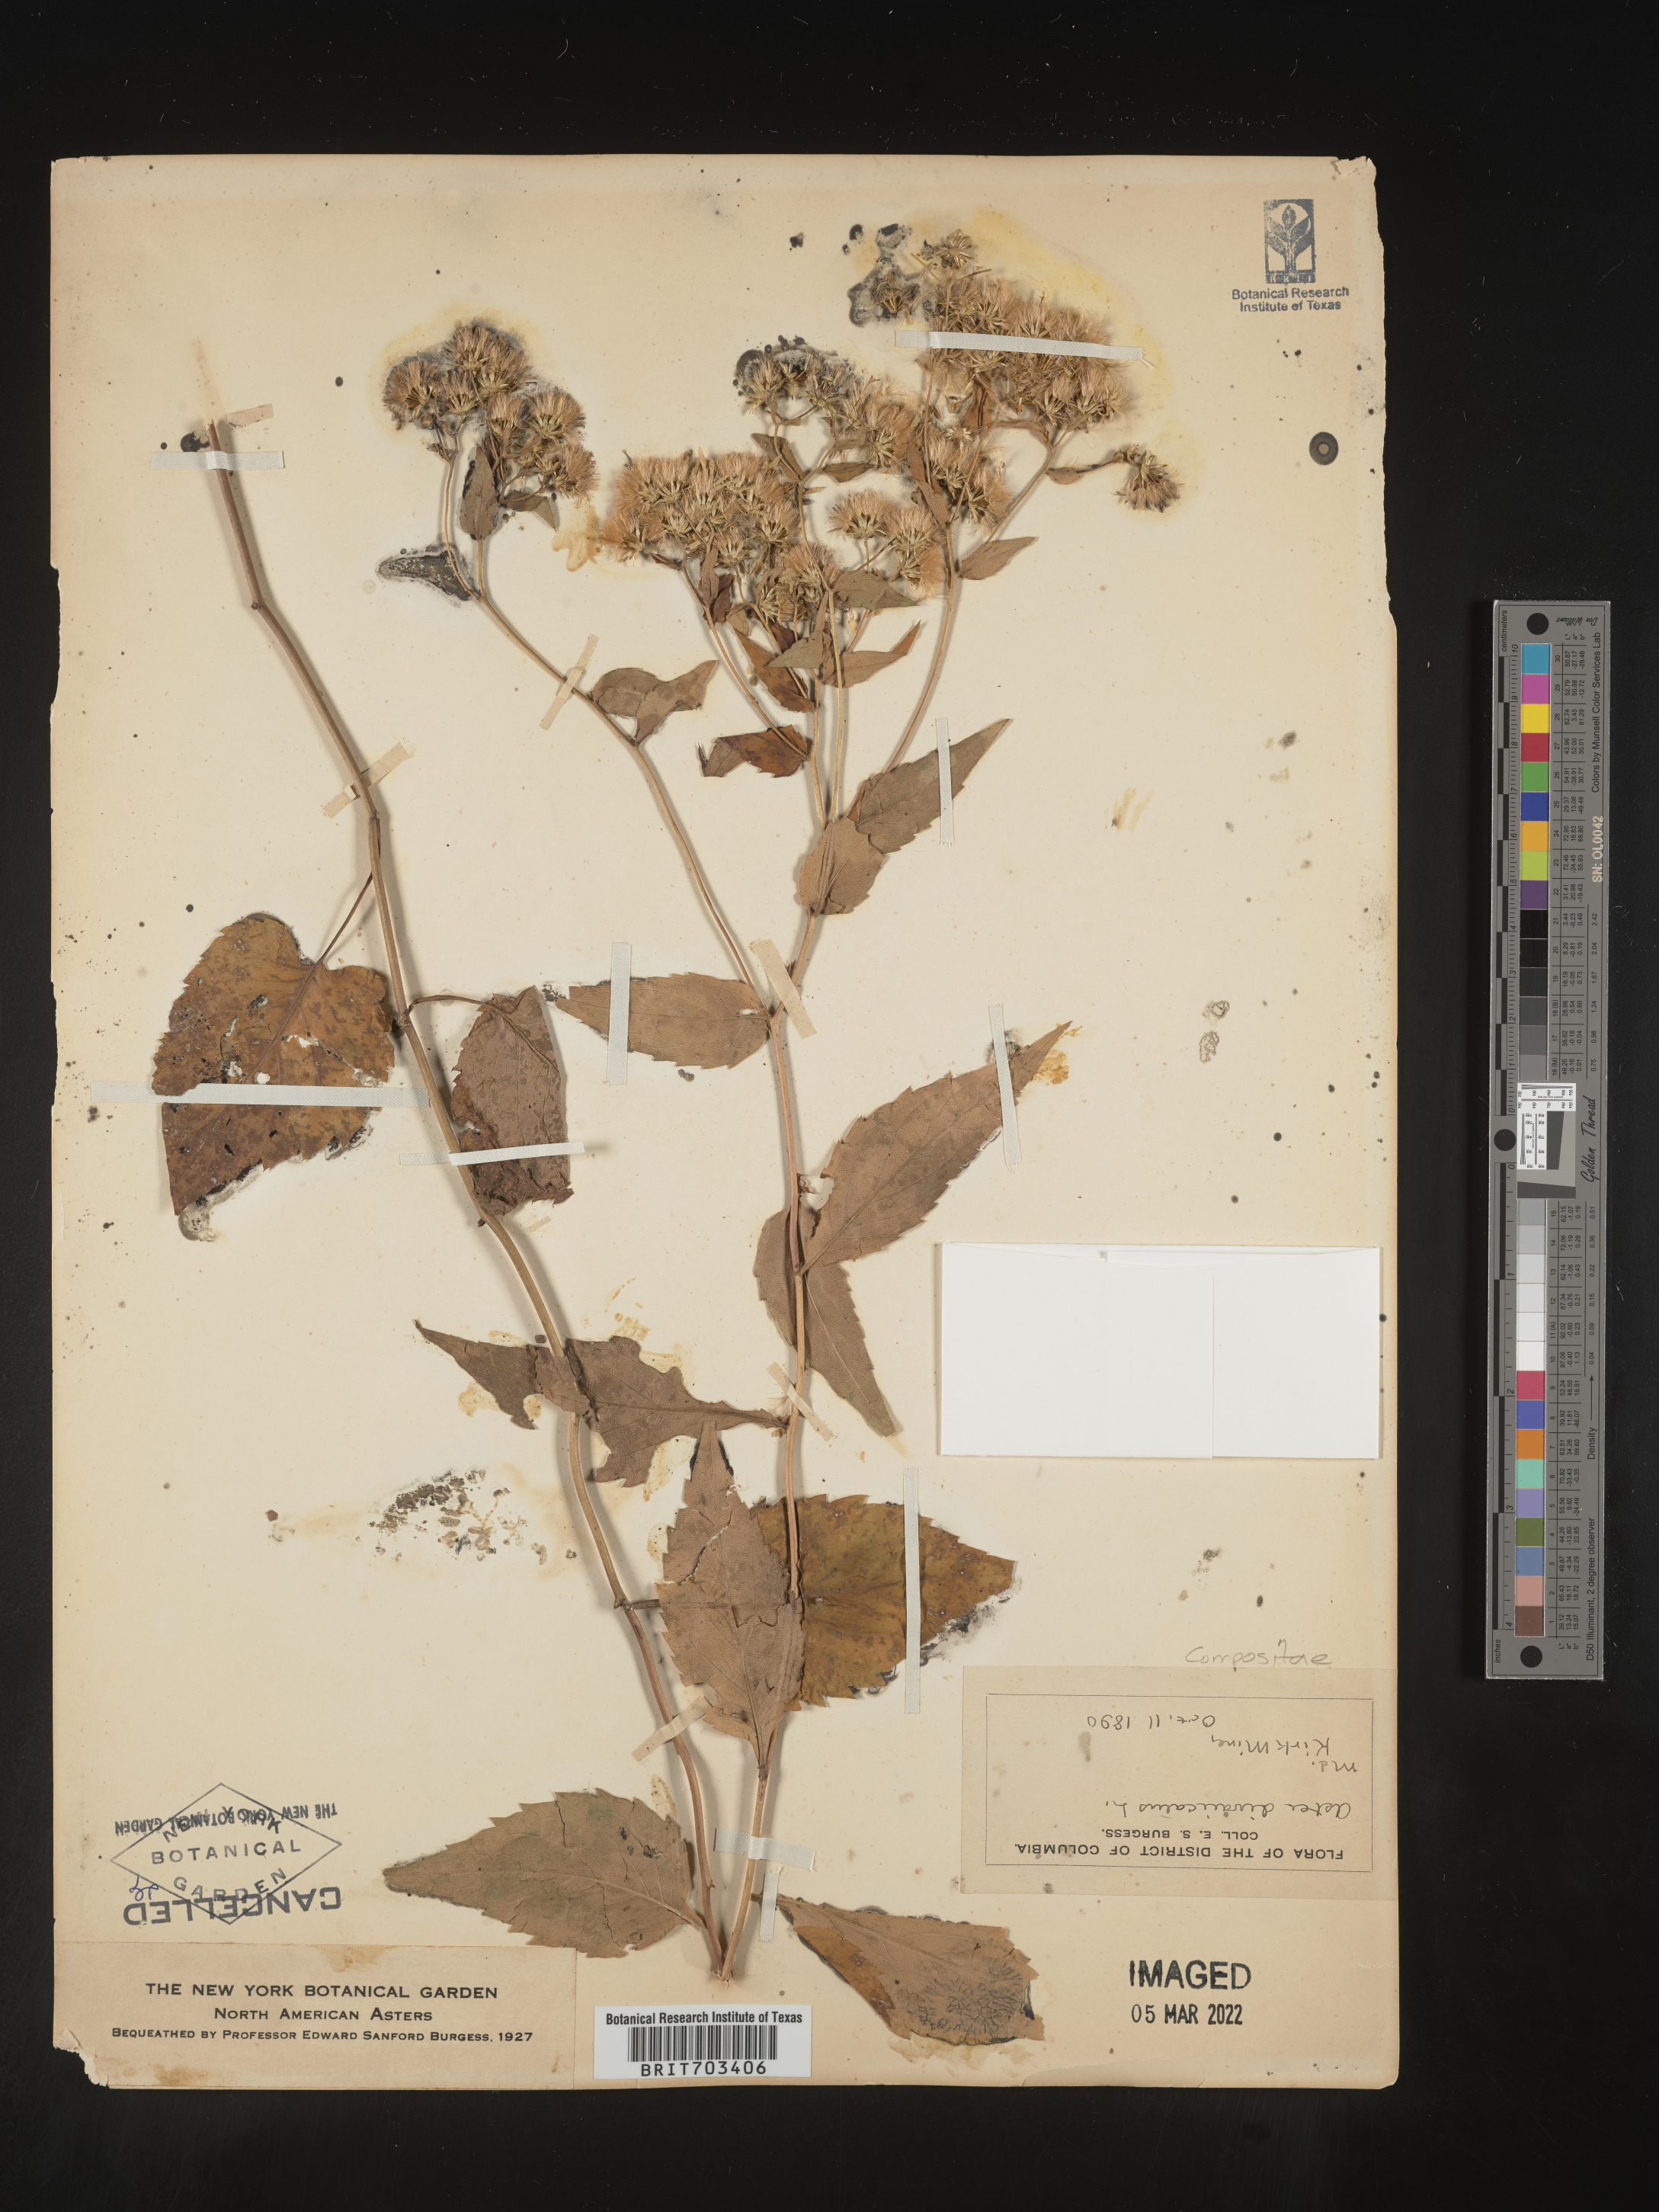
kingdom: Plantae
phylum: Tracheophyta
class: Magnoliopsida
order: Asterales
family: Asteraceae
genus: Eurybia
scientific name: Eurybia divaricata
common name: White wood aster
